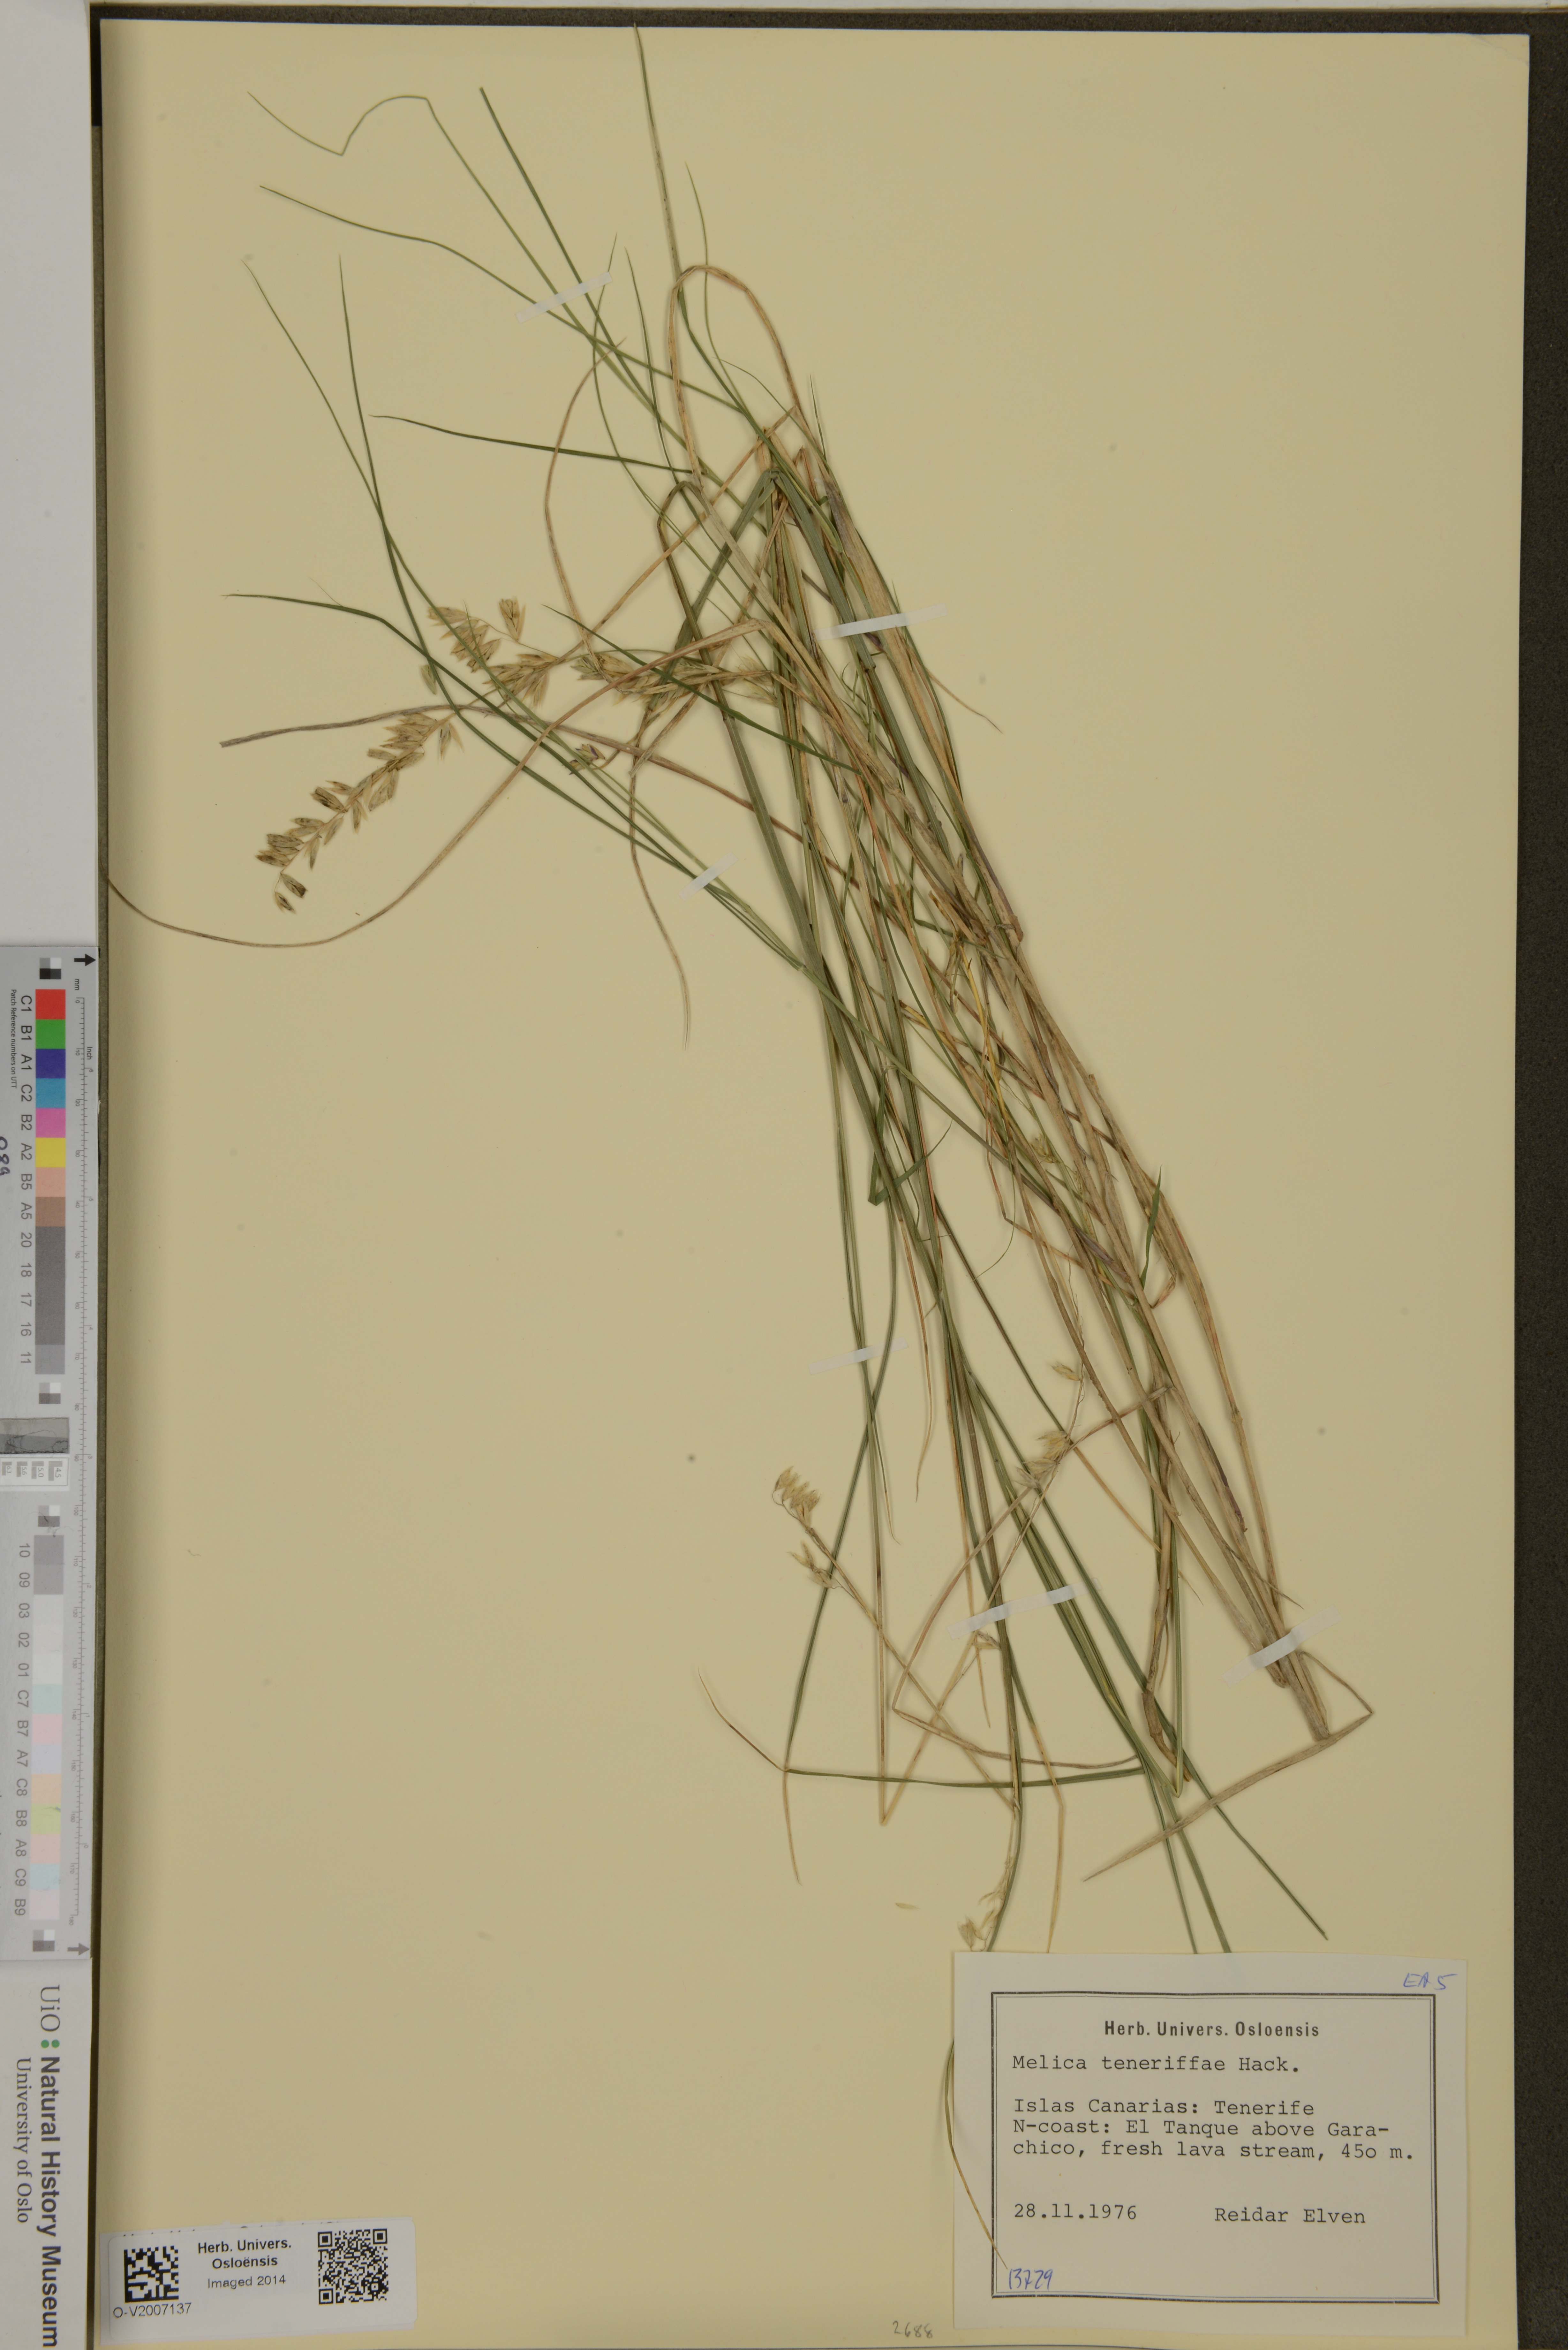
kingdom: Plantae
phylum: Tracheophyta
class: Liliopsida
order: Poales
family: Poaceae
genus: Melica
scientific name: Melica teneriffae
